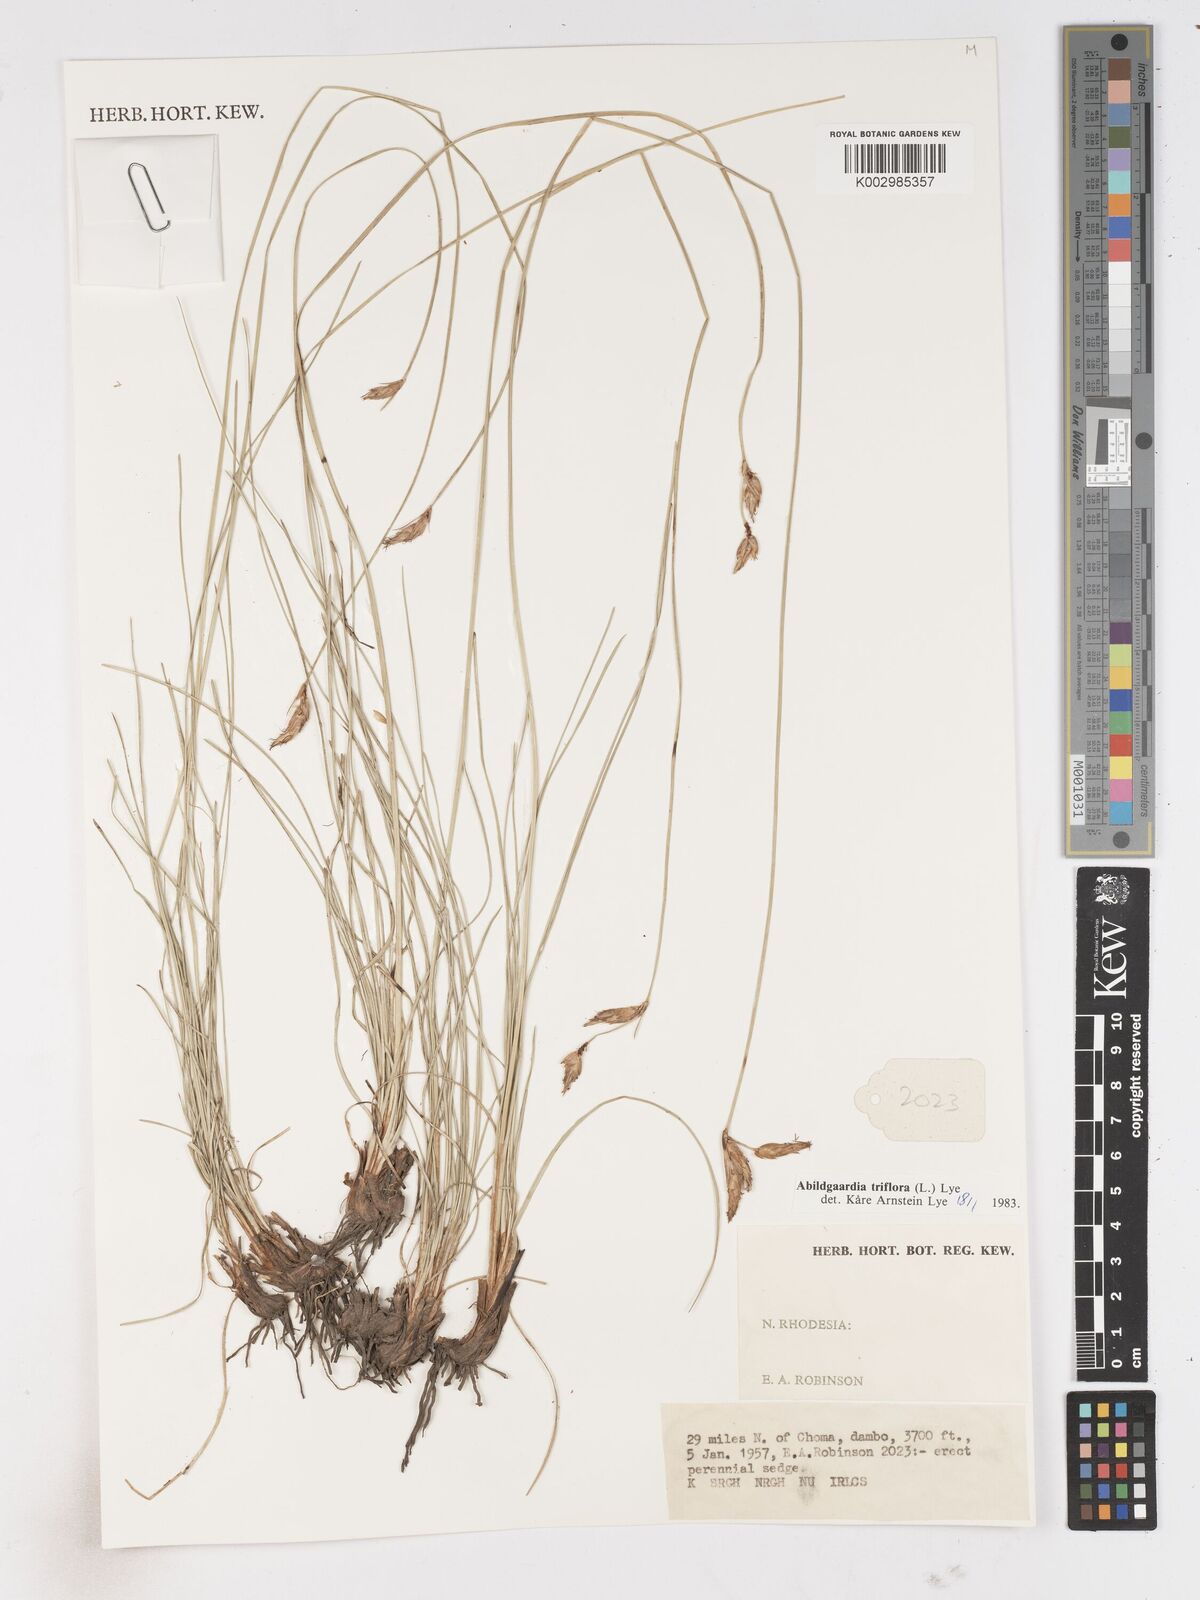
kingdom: Plantae
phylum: Tracheophyta
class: Liliopsida
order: Poales
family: Cyperaceae
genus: Abildgaardia
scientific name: Abildgaardia triflora
